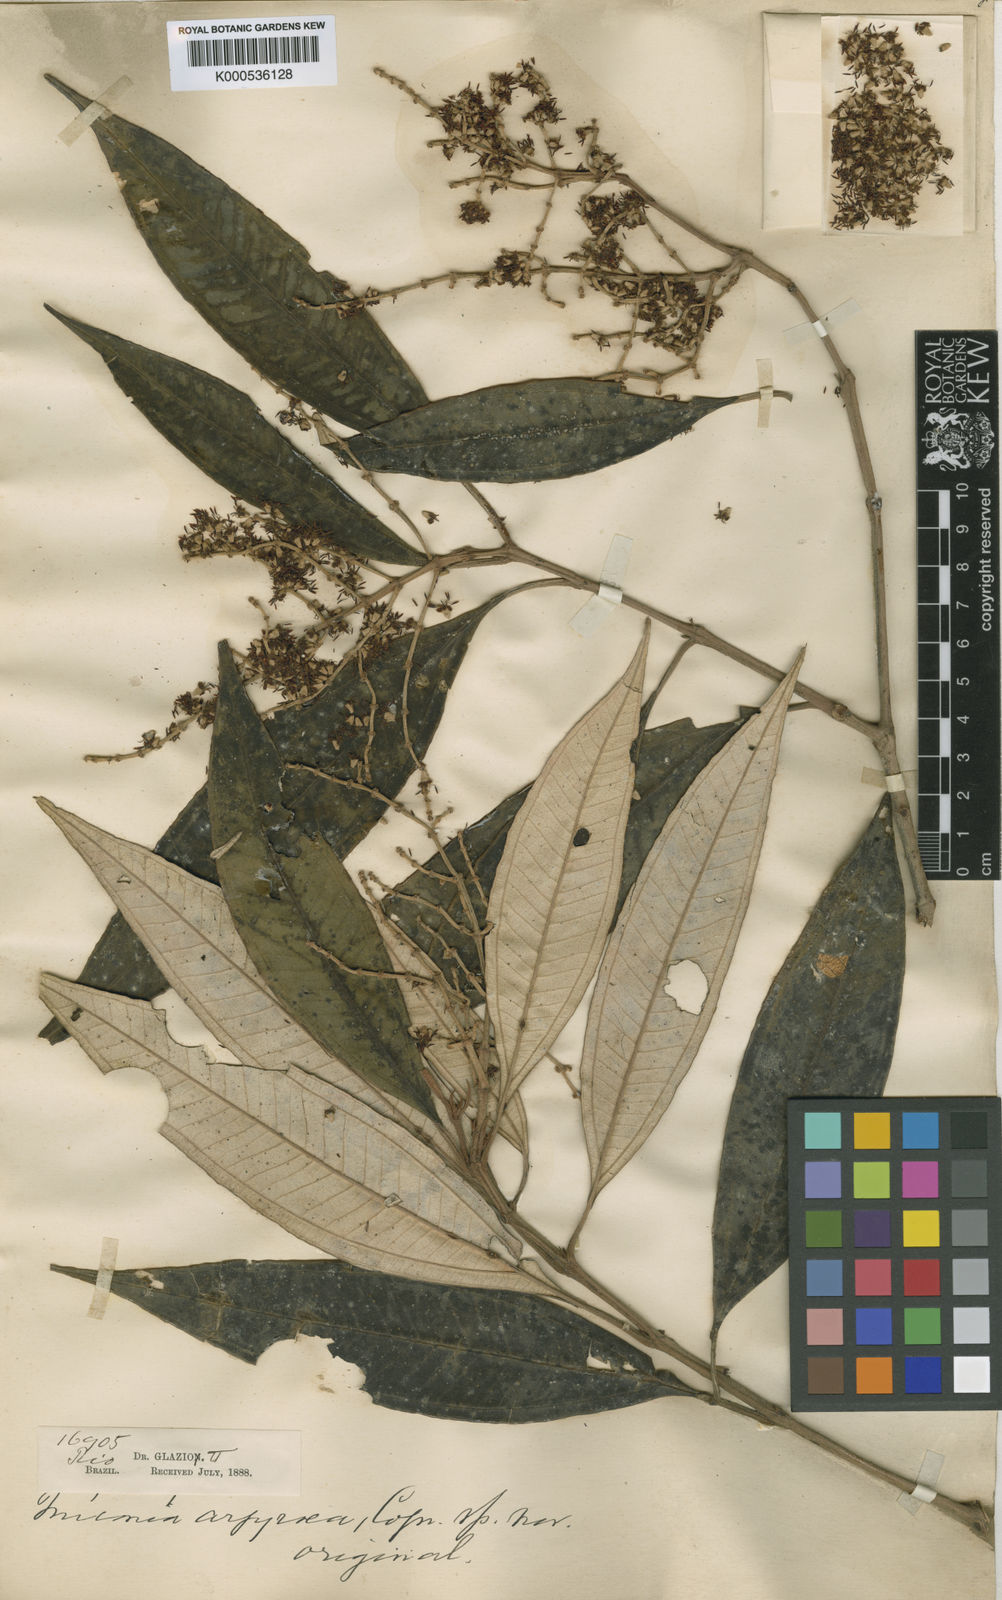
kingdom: Plantae
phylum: Tracheophyta
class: Magnoliopsida
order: Myrtales
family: Melastomataceae
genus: Miconia
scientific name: Miconia willdenowii
